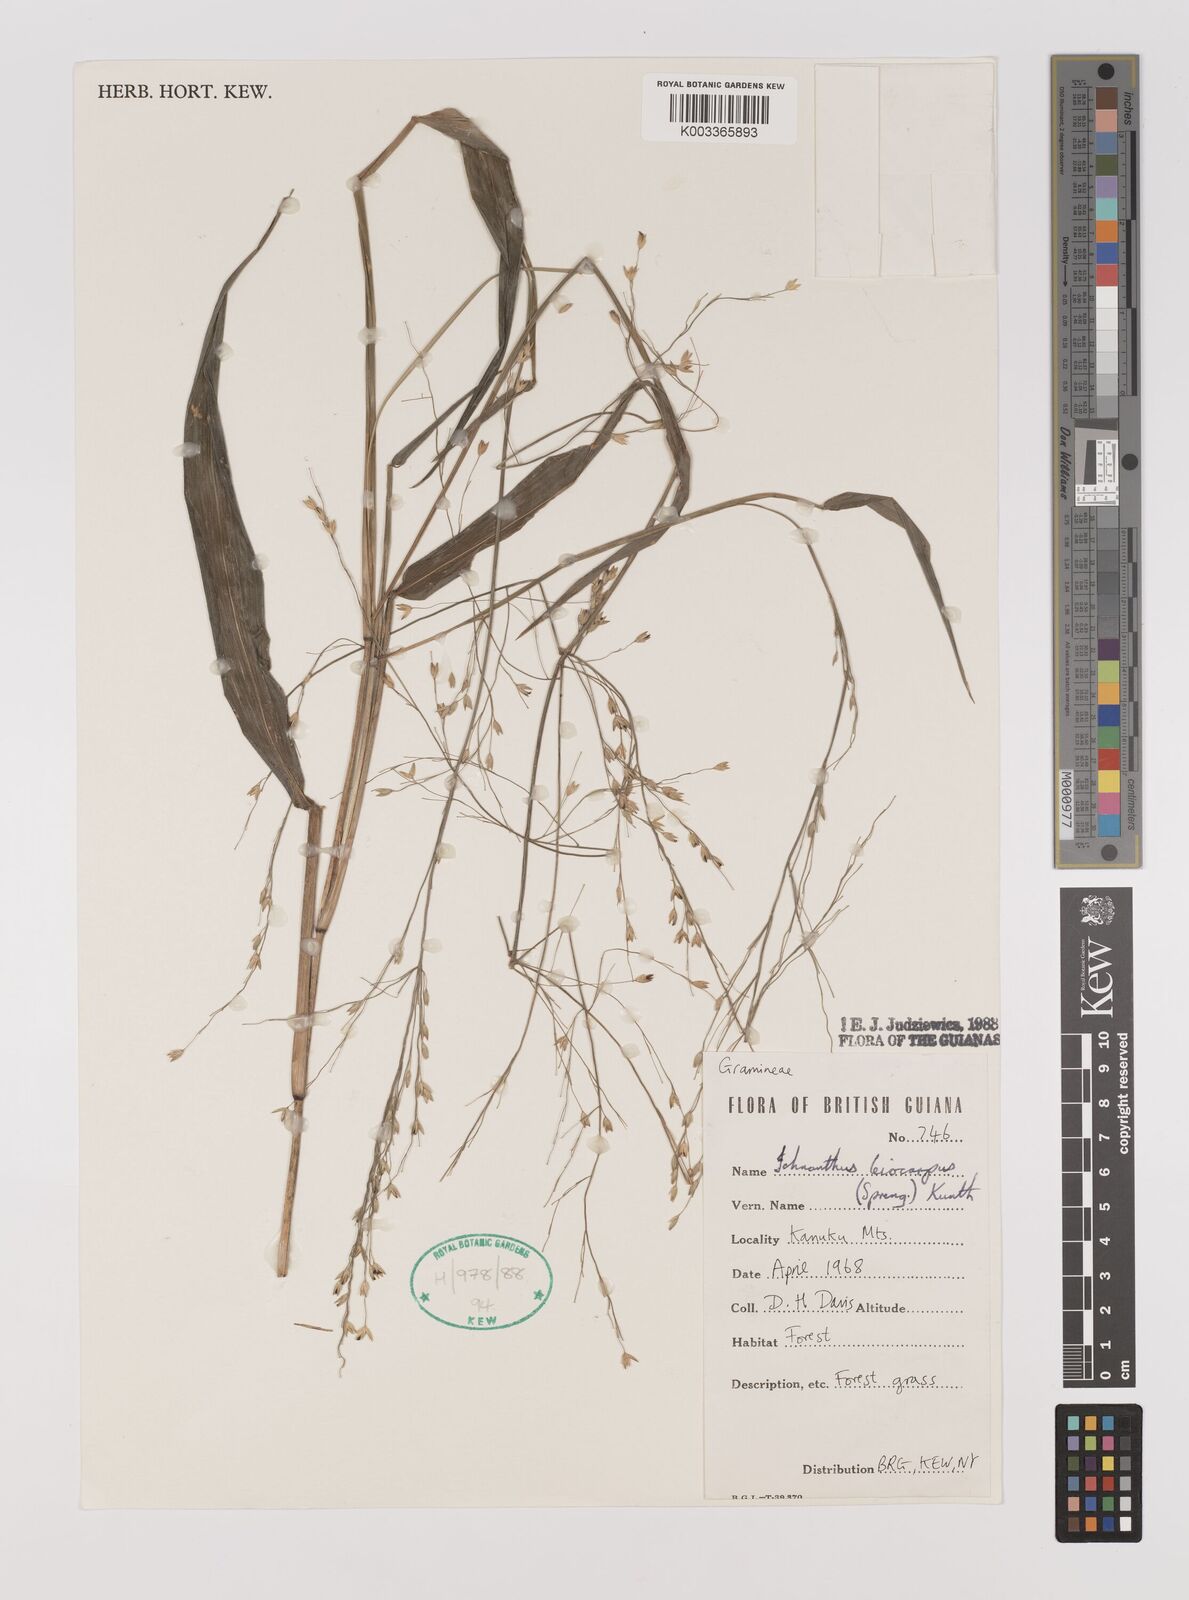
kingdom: Plantae
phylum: Tracheophyta
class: Liliopsida
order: Poales
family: Poaceae
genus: Ichnanthus
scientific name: Ichnanthus leiocarpus
